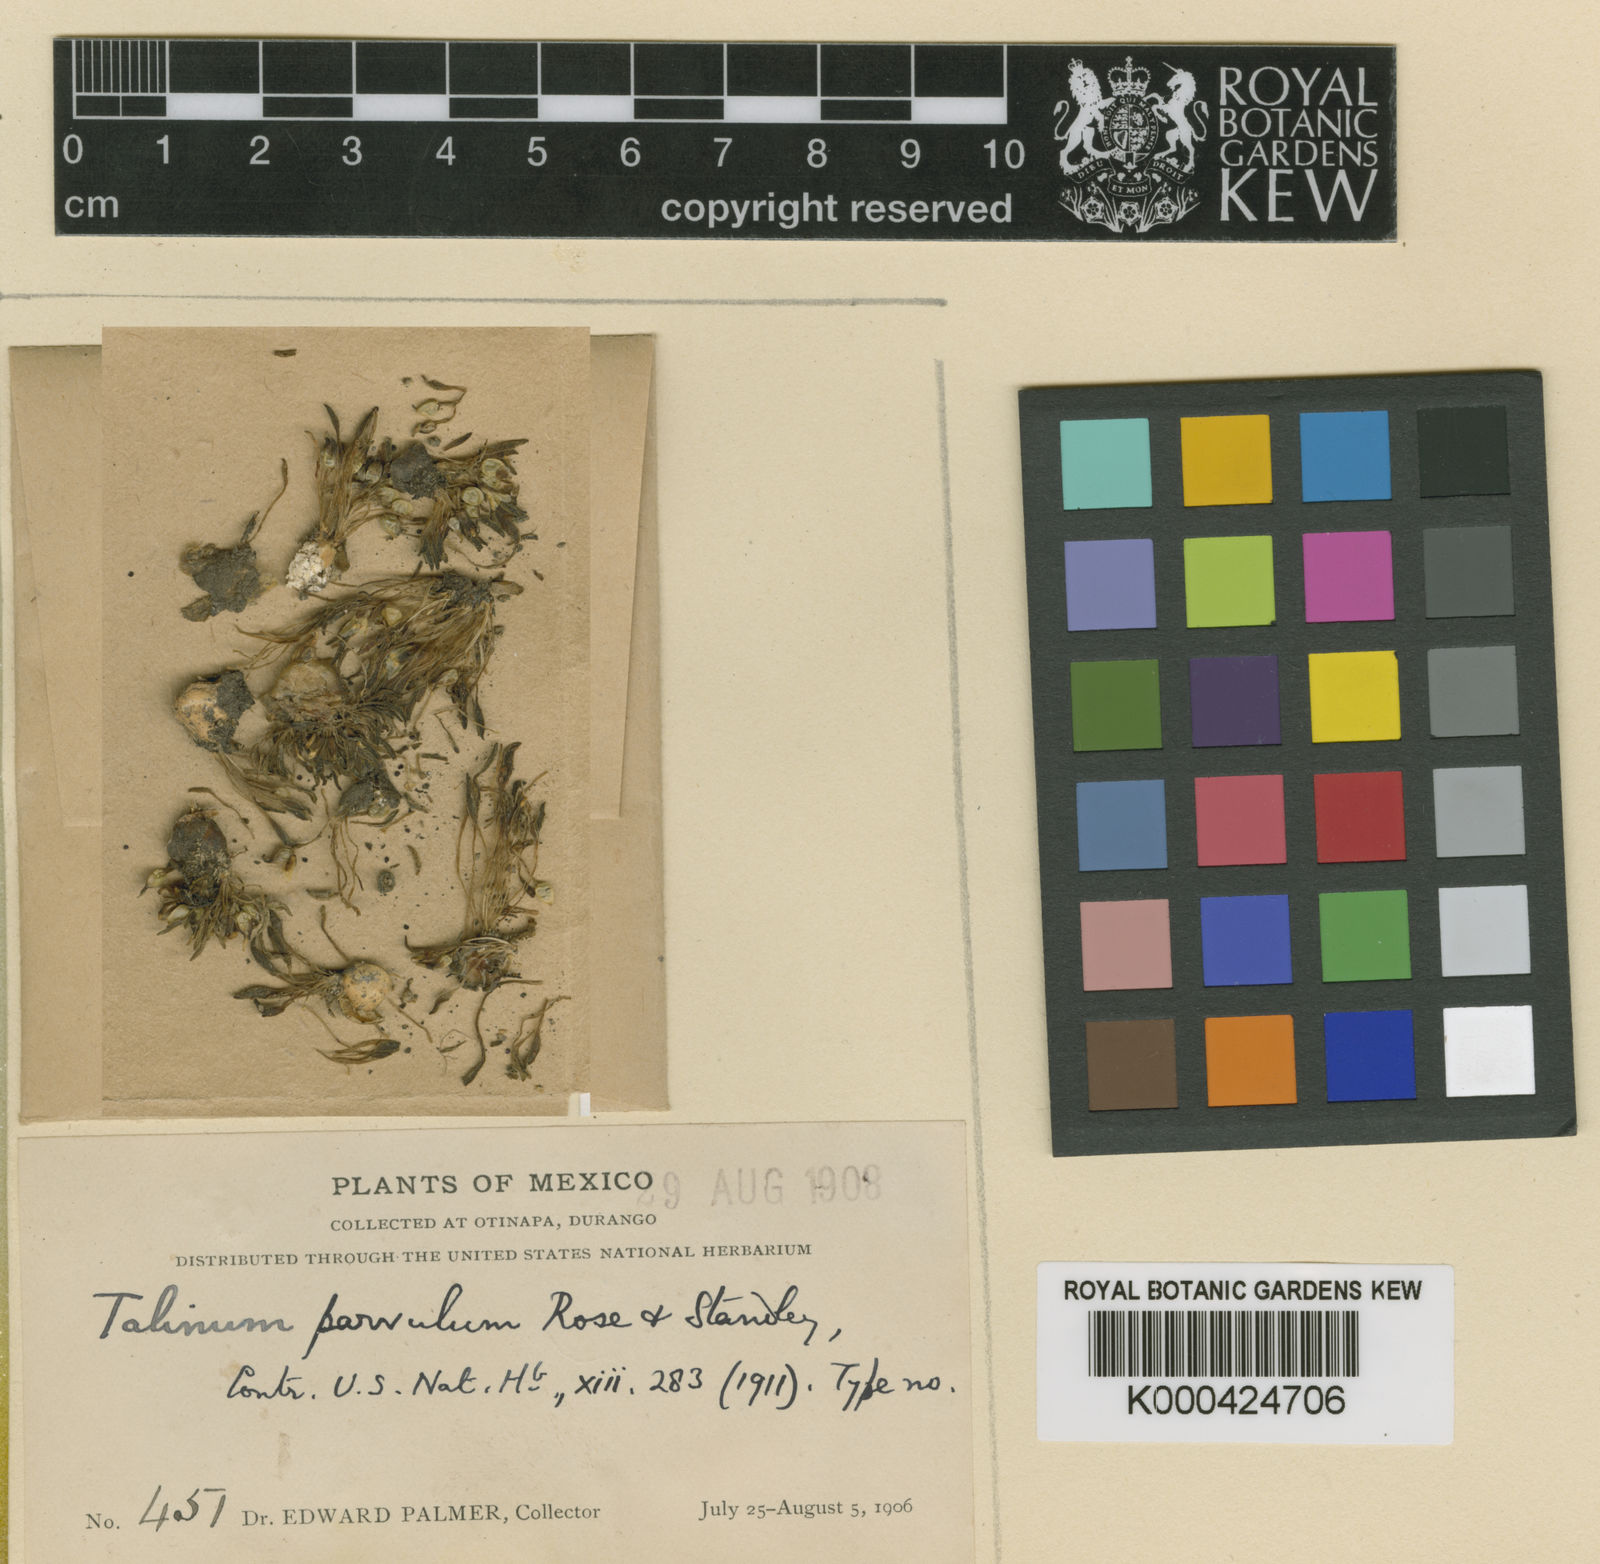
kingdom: Plantae
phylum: Tracheophyta
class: Magnoliopsida
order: Caryophyllales
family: Montiaceae
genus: Phemeranthus
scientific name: Phemeranthus parvulus
